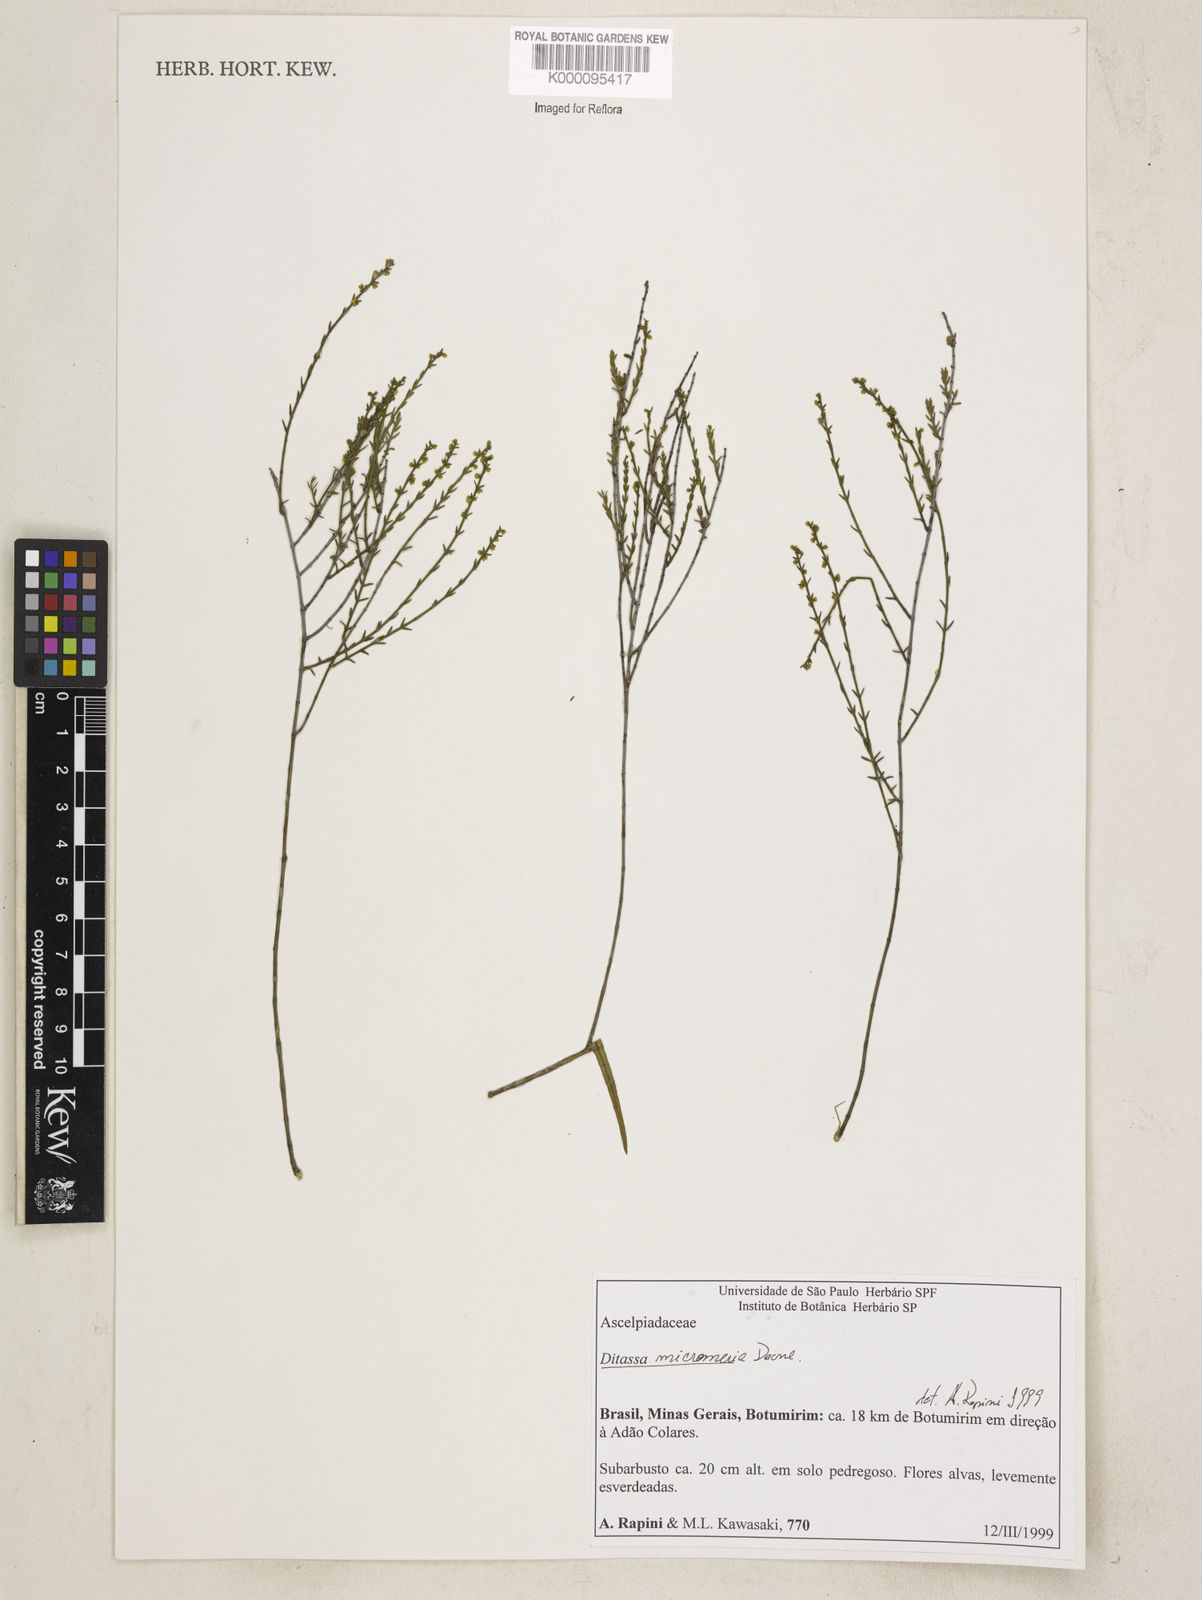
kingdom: Plantae
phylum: Tracheophyta
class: Magnoliopsida
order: Gentianales
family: Apocynaceae
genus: Minaria
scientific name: Minaria micromeria
